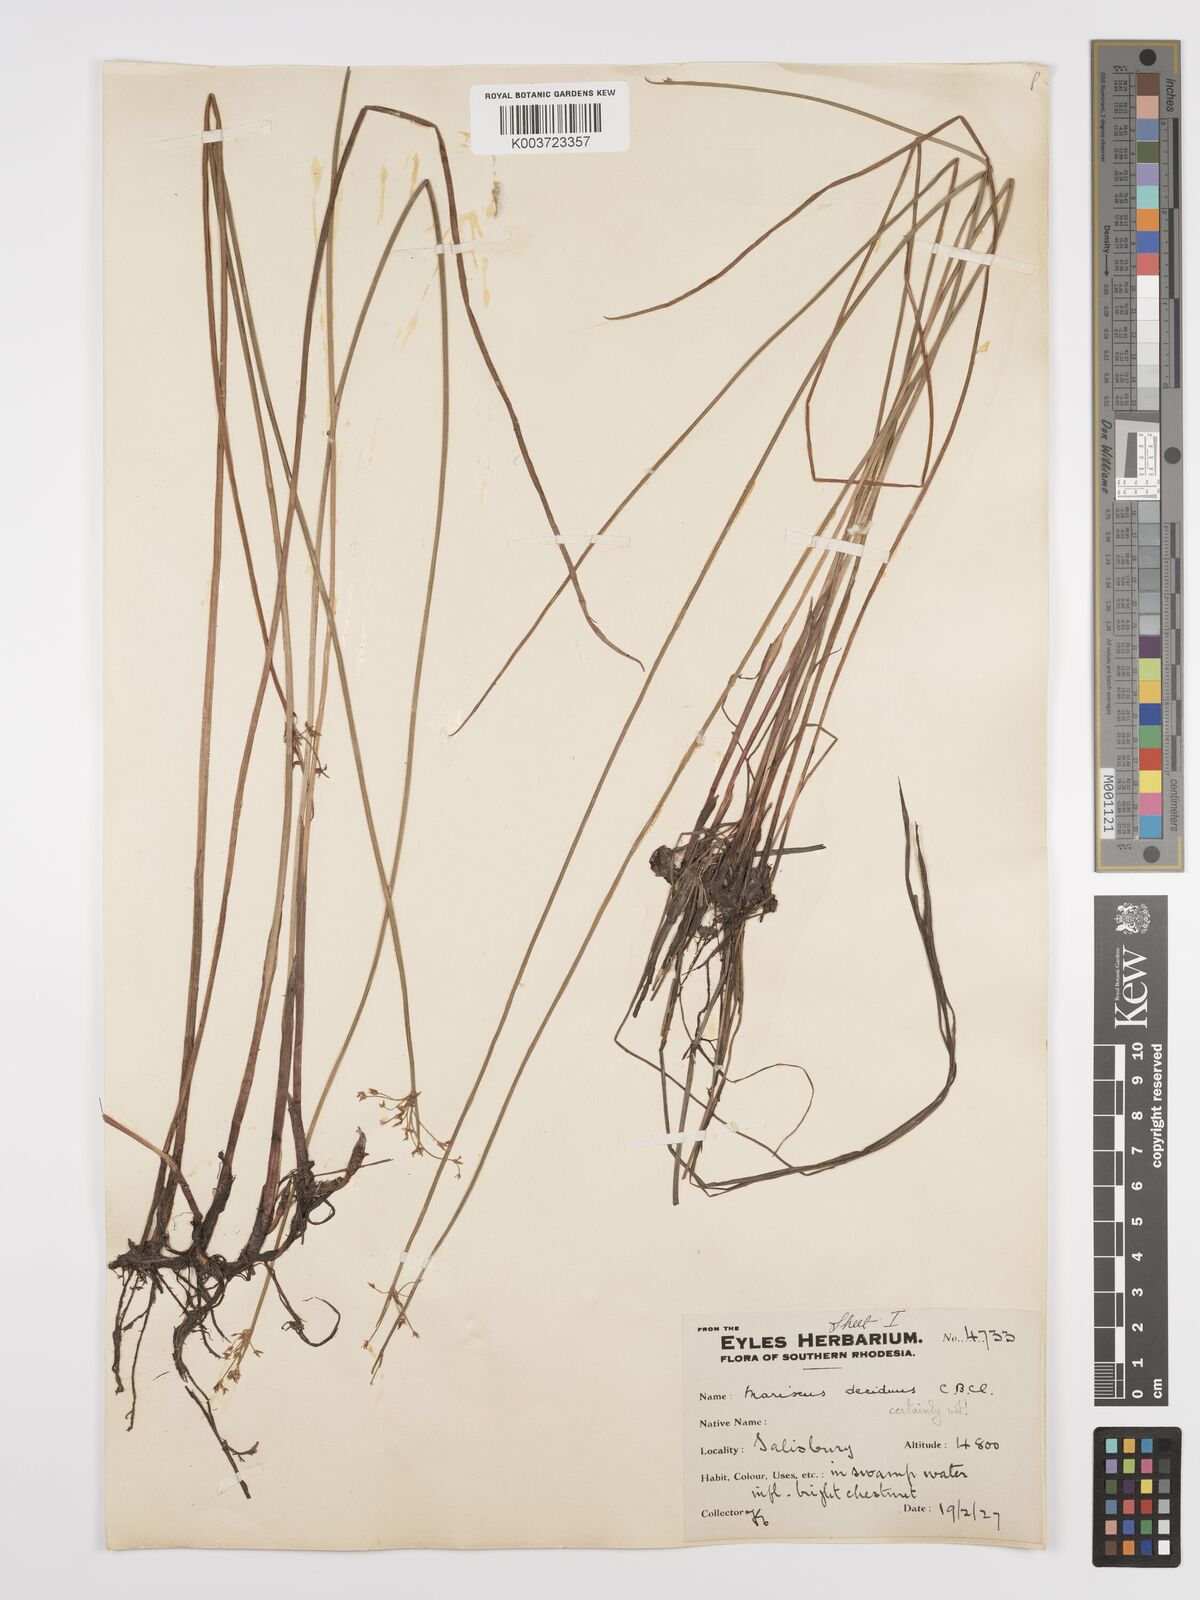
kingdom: Plantae
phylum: Tracheophyta
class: Liliopsida
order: Poales
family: Cyperaceae
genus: Cyperus
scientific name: Cyperus denudatus
